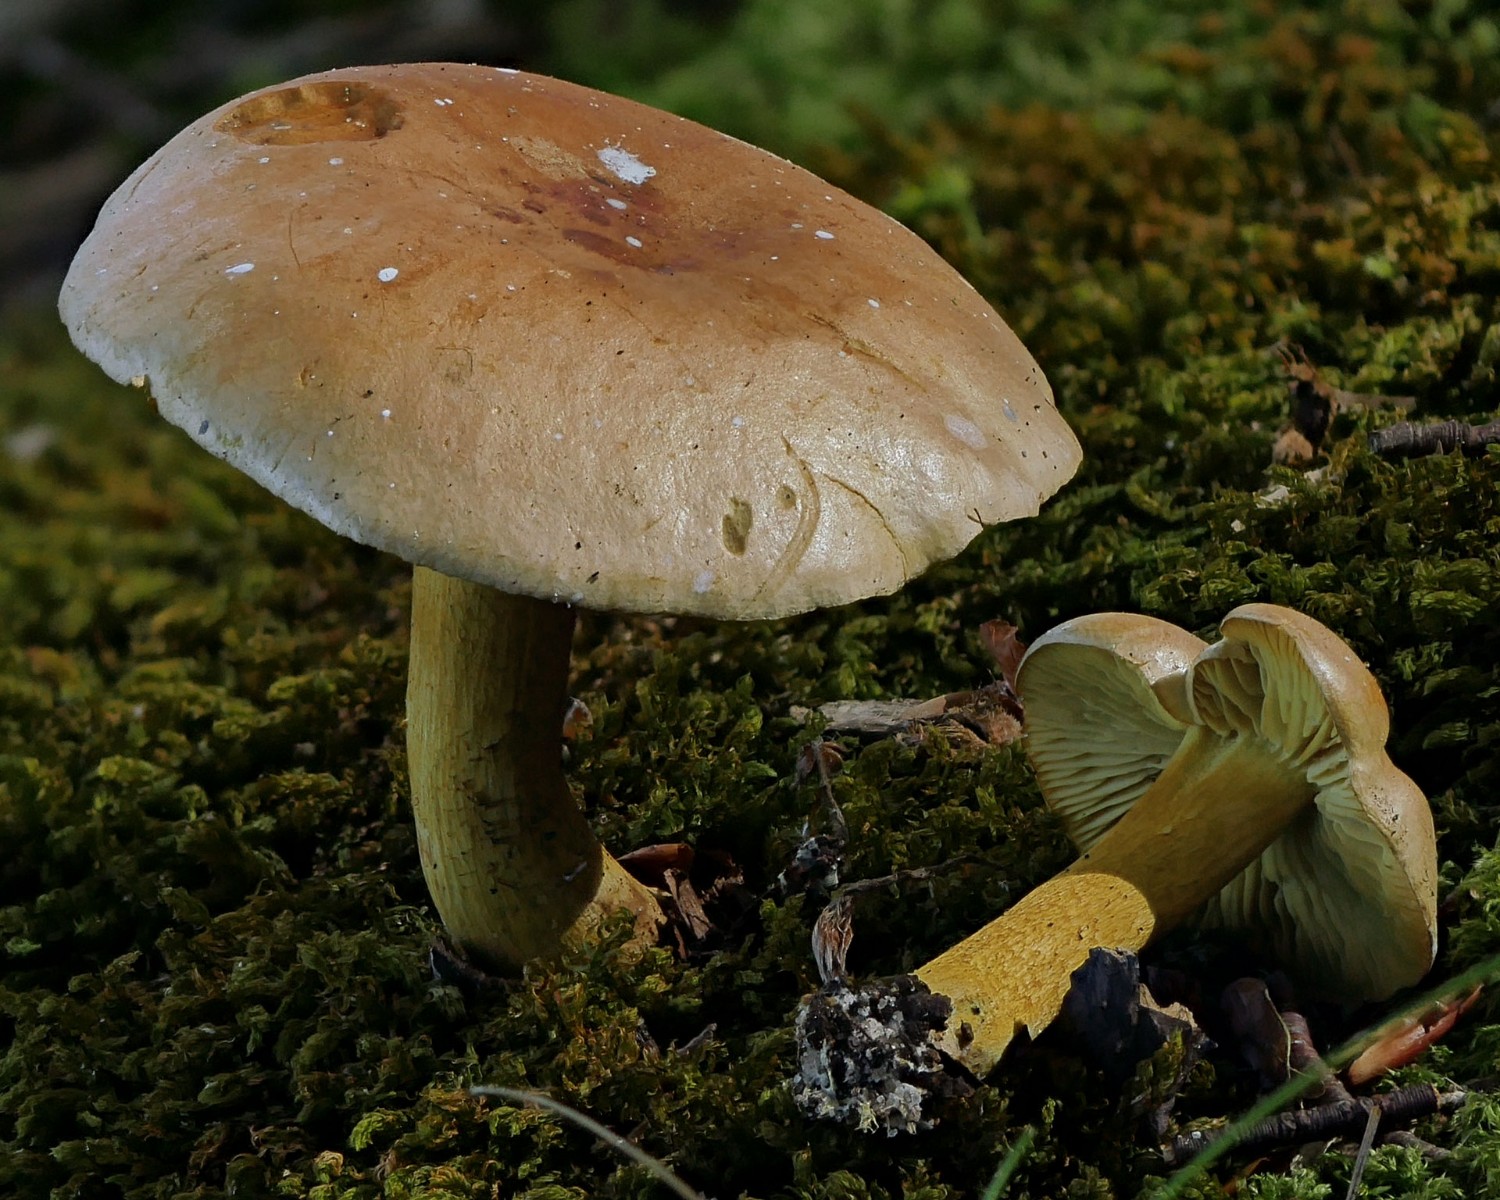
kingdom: Fungi
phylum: Basidiomycota
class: Agaricomycetes
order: Agaricales
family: Tricholomataceae
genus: Tricholoma
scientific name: Tricholoma sulphureum
